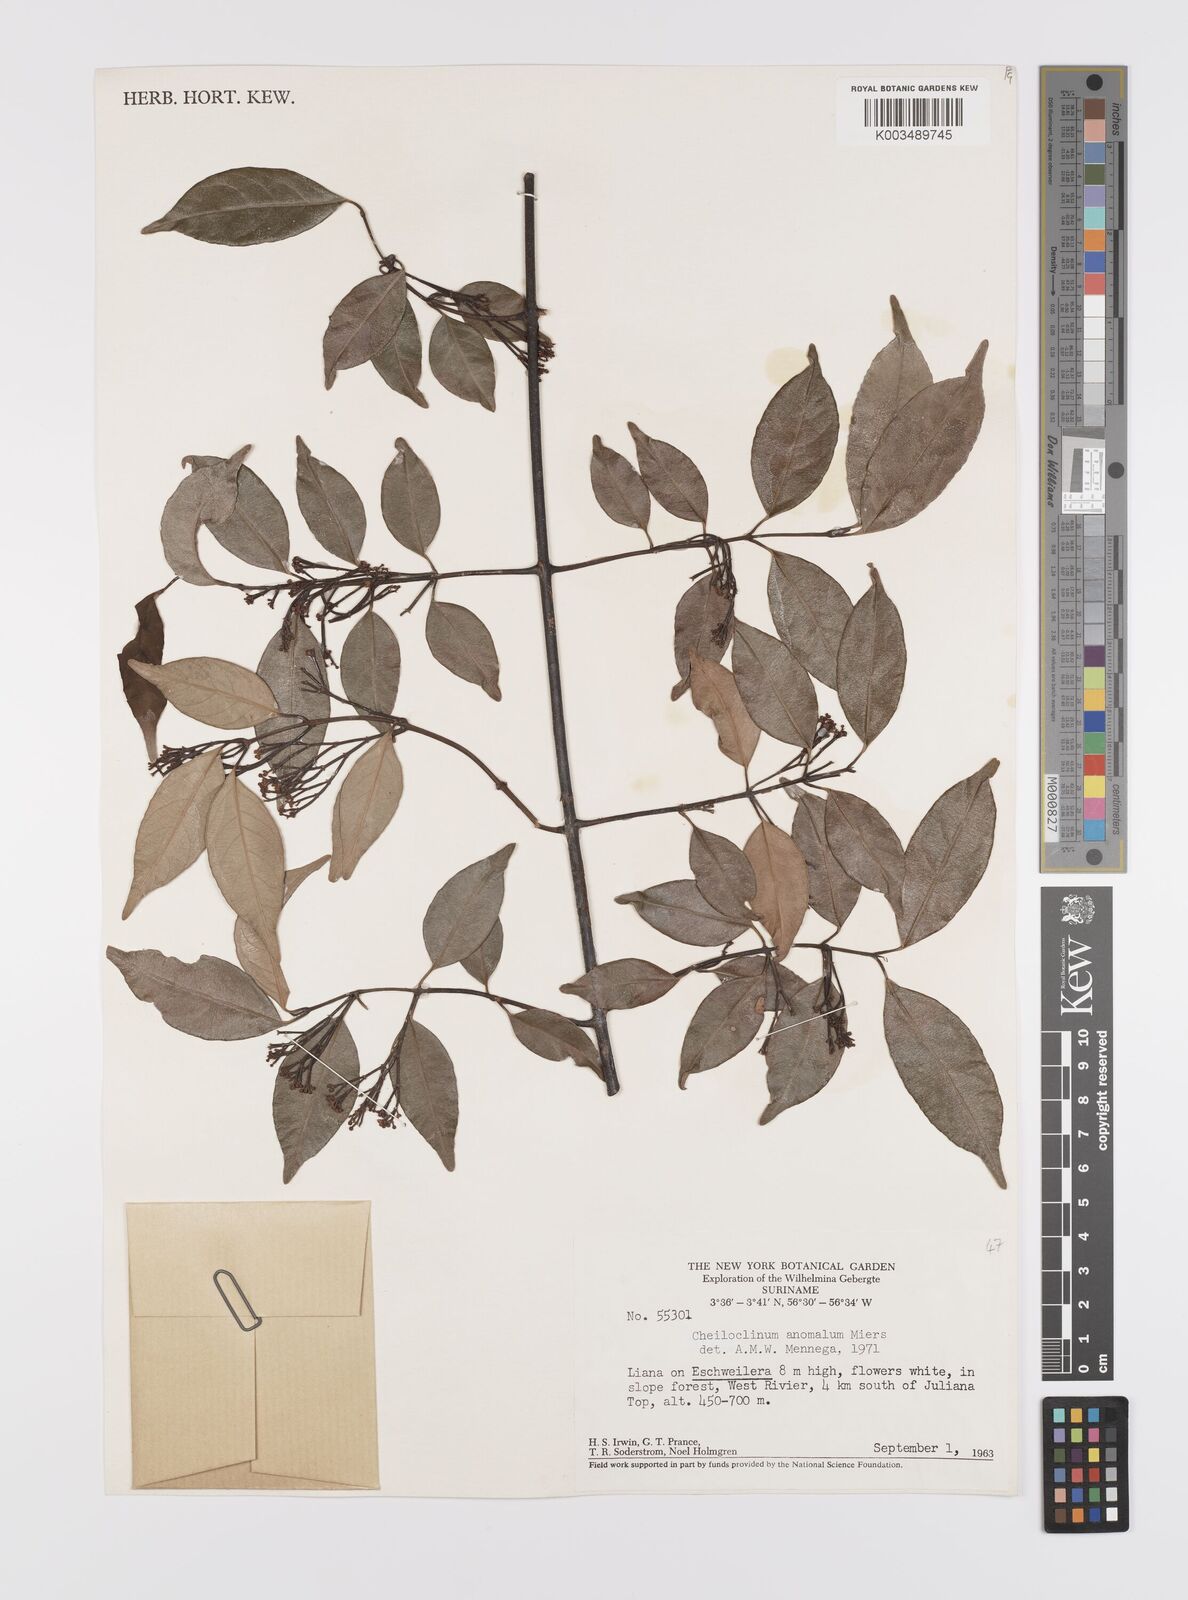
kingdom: Plantae
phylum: Tracheophyta
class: Magnoliopsida
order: Celastrales
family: Celastraceae
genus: Cheiloclinium
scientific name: Cheiloclinium anomalum
